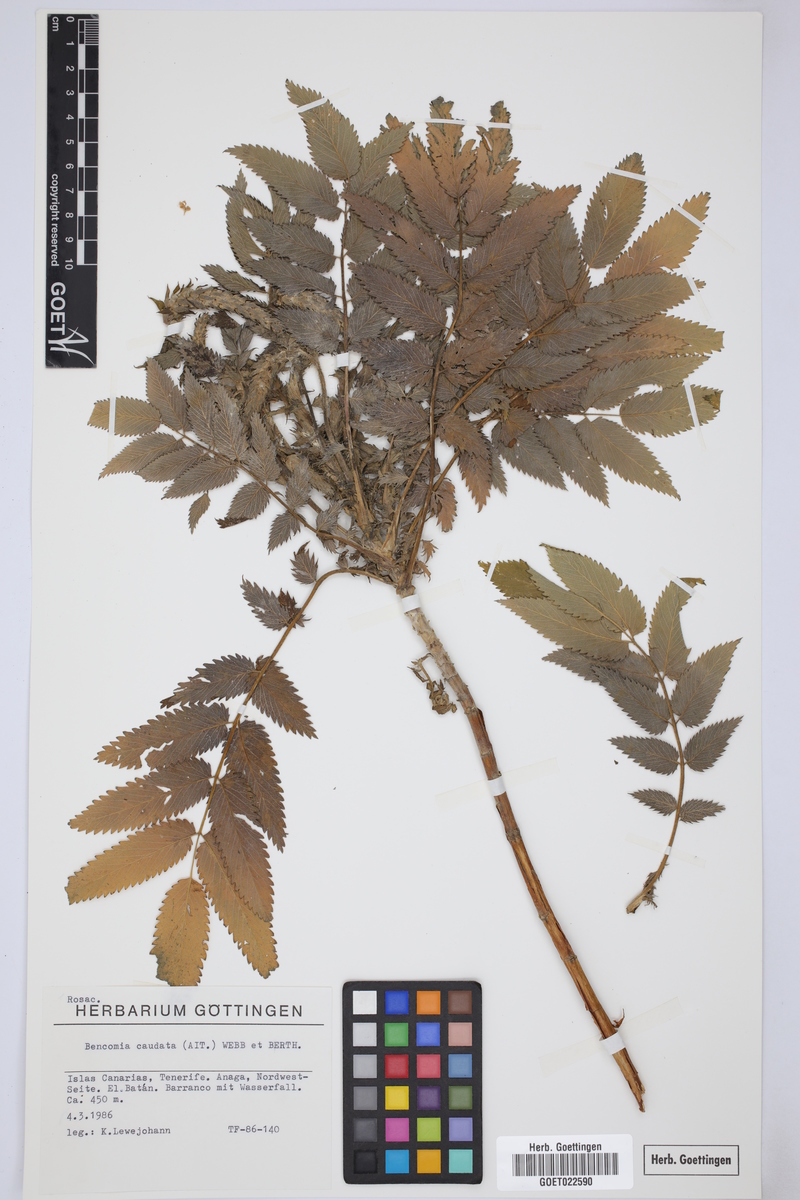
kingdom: Plantae
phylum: Tracheophyta
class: Magnoliopsida
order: Rosales
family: Rosaceae
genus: Bencomia
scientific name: Bencomia caudata
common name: Bencomia
